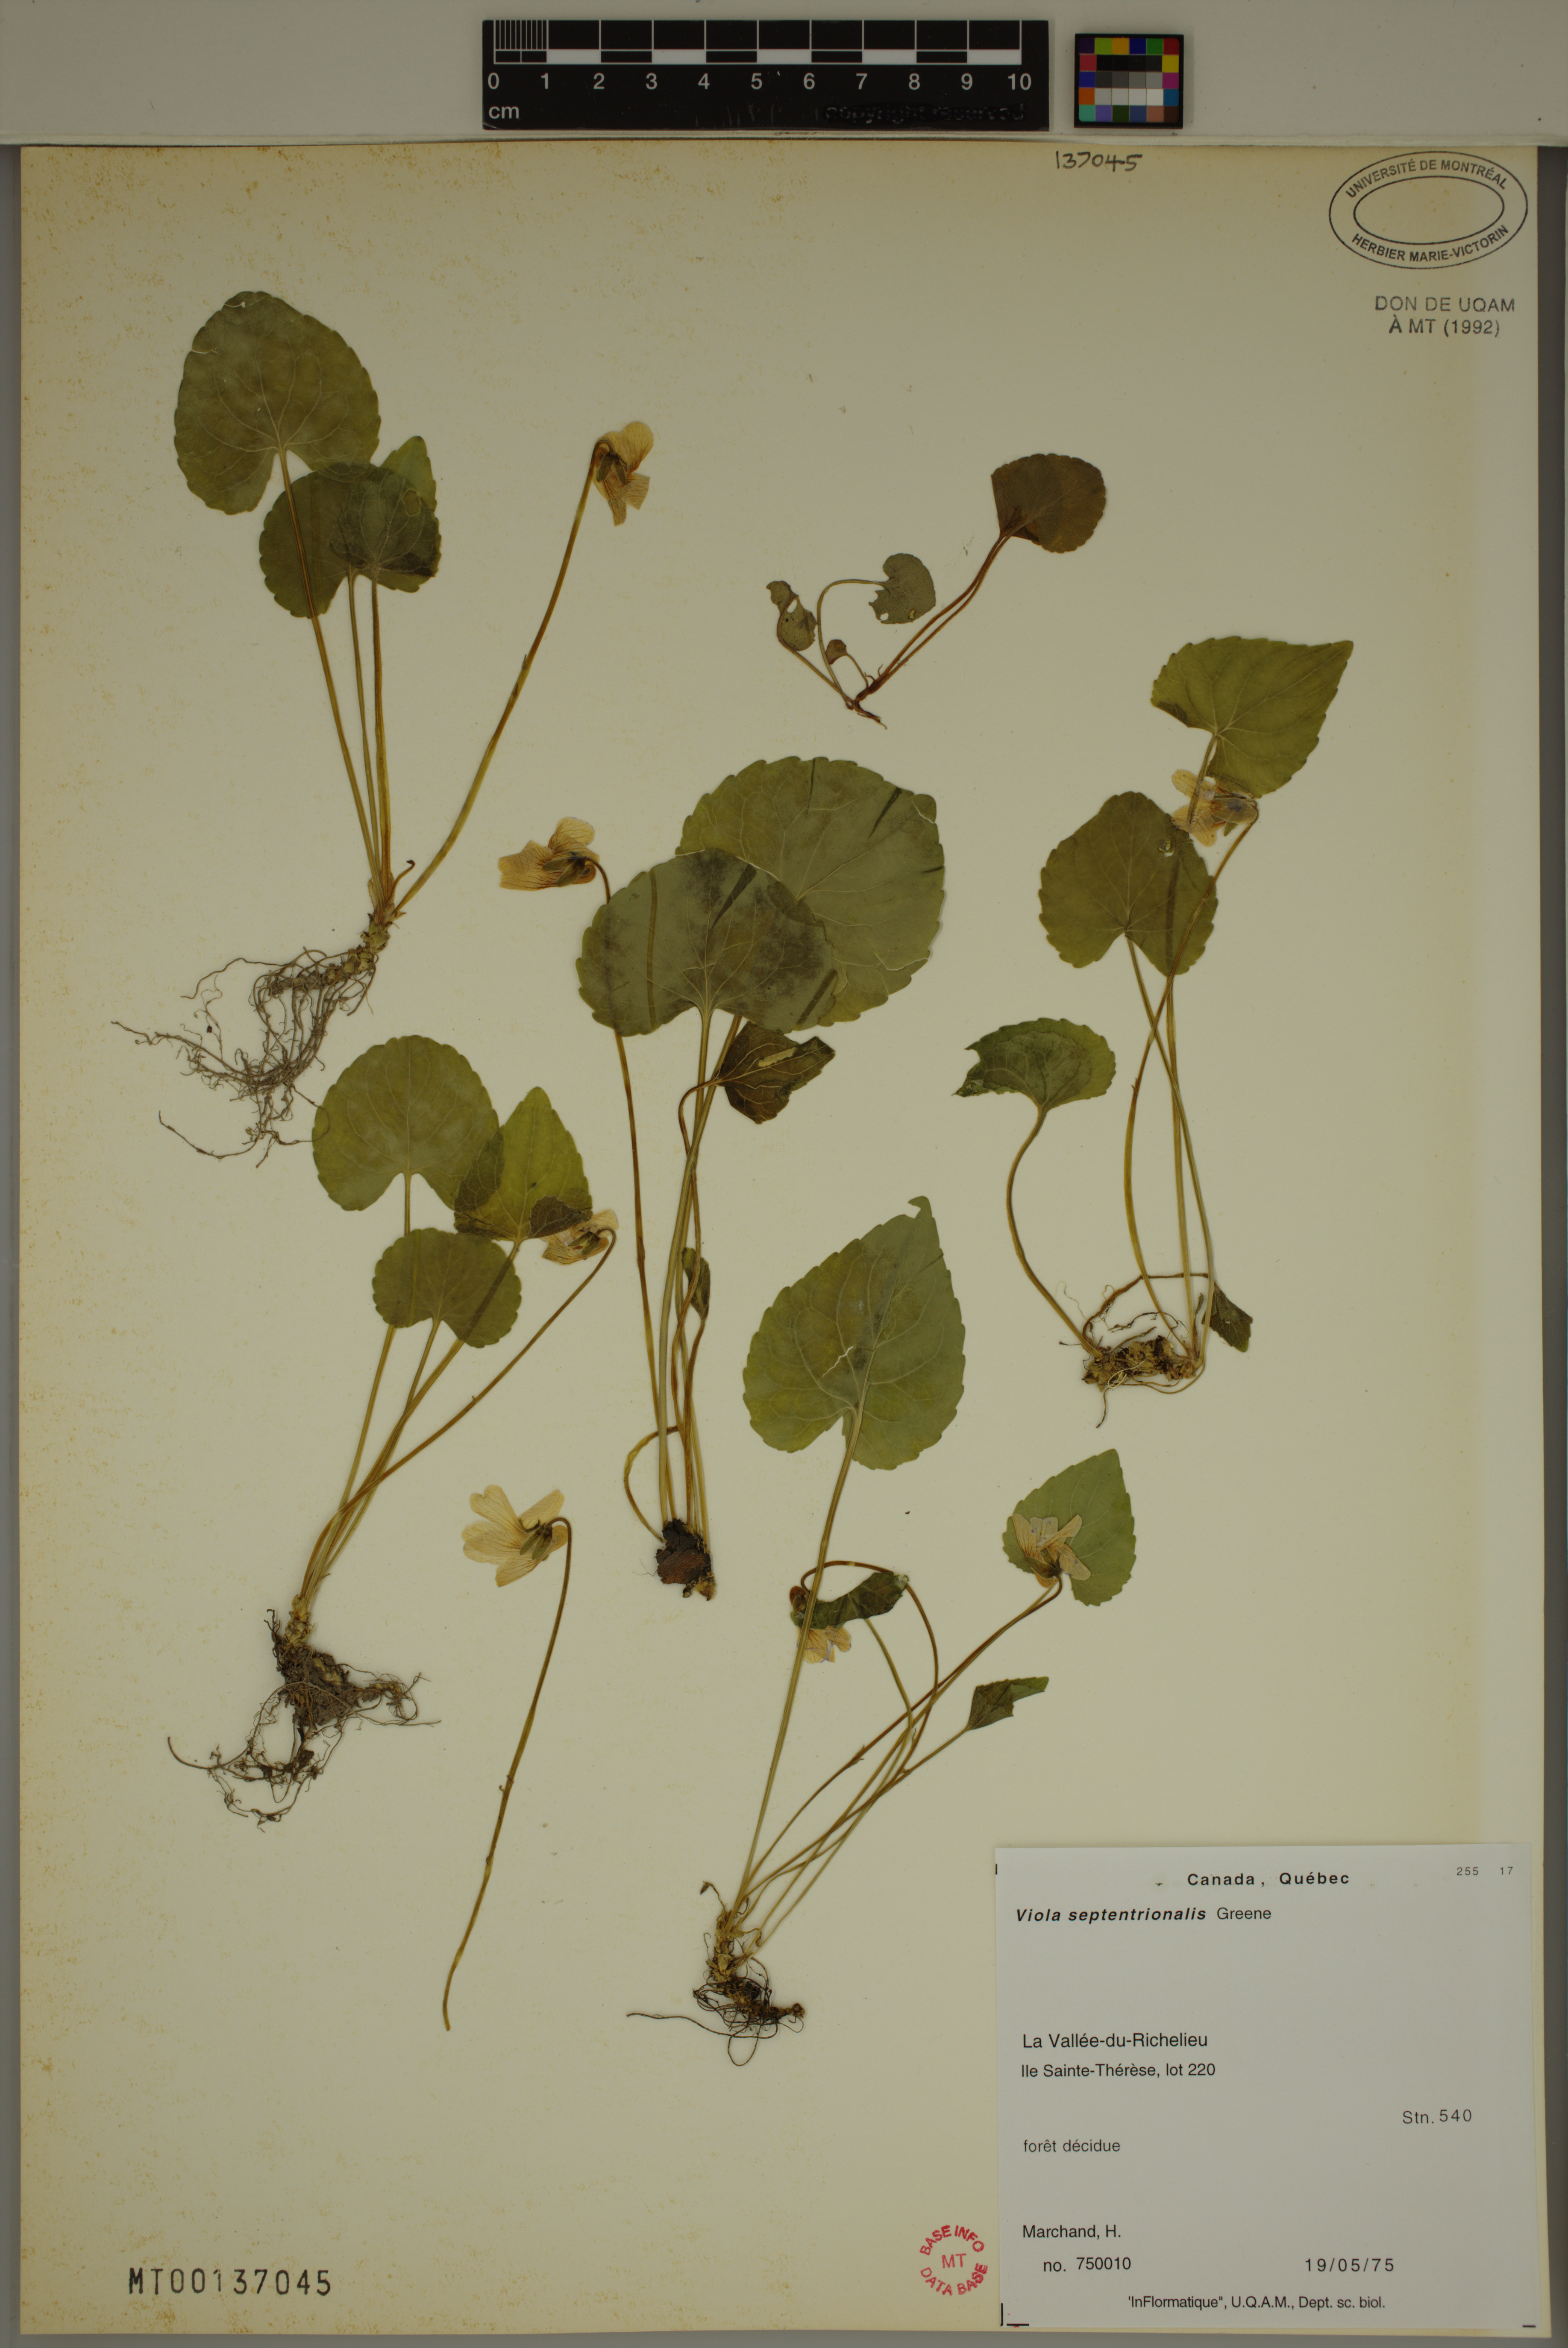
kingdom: Plantae
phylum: Tracheophyta
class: Magnoliopsida
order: Malpighiales
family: Violaceae
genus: Viola
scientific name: Viola sororia
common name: Dooryard violet
